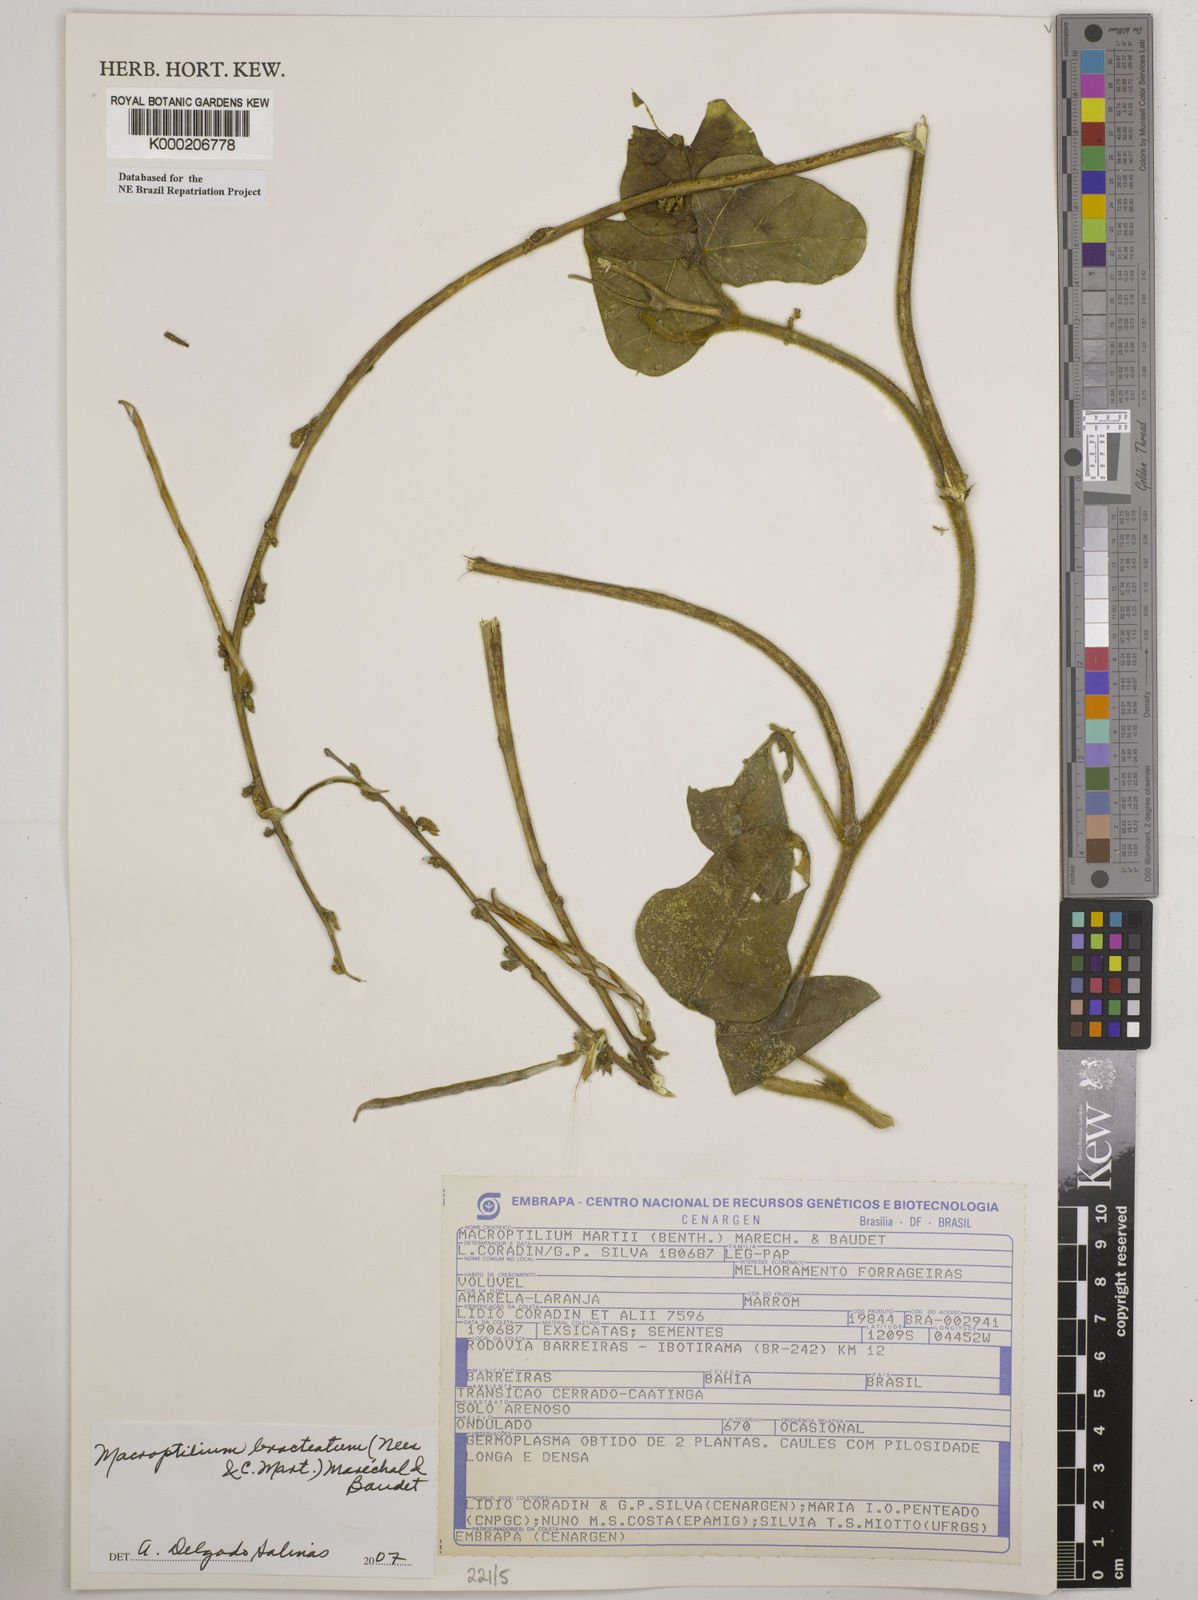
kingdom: Plantae
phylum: Tracheophyta
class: Magnoliopsida
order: Fabales
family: Fabaceae
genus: Macroptilium
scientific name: Macroptilium
